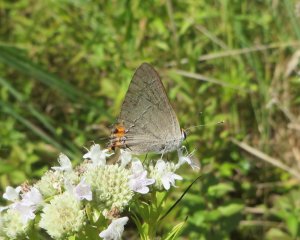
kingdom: Animalia
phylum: Arthropoda
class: Insecta
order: Lepidoptera
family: Lycaenidae
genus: Strymon
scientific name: Strymon melinus
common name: Gray Hairstreak
